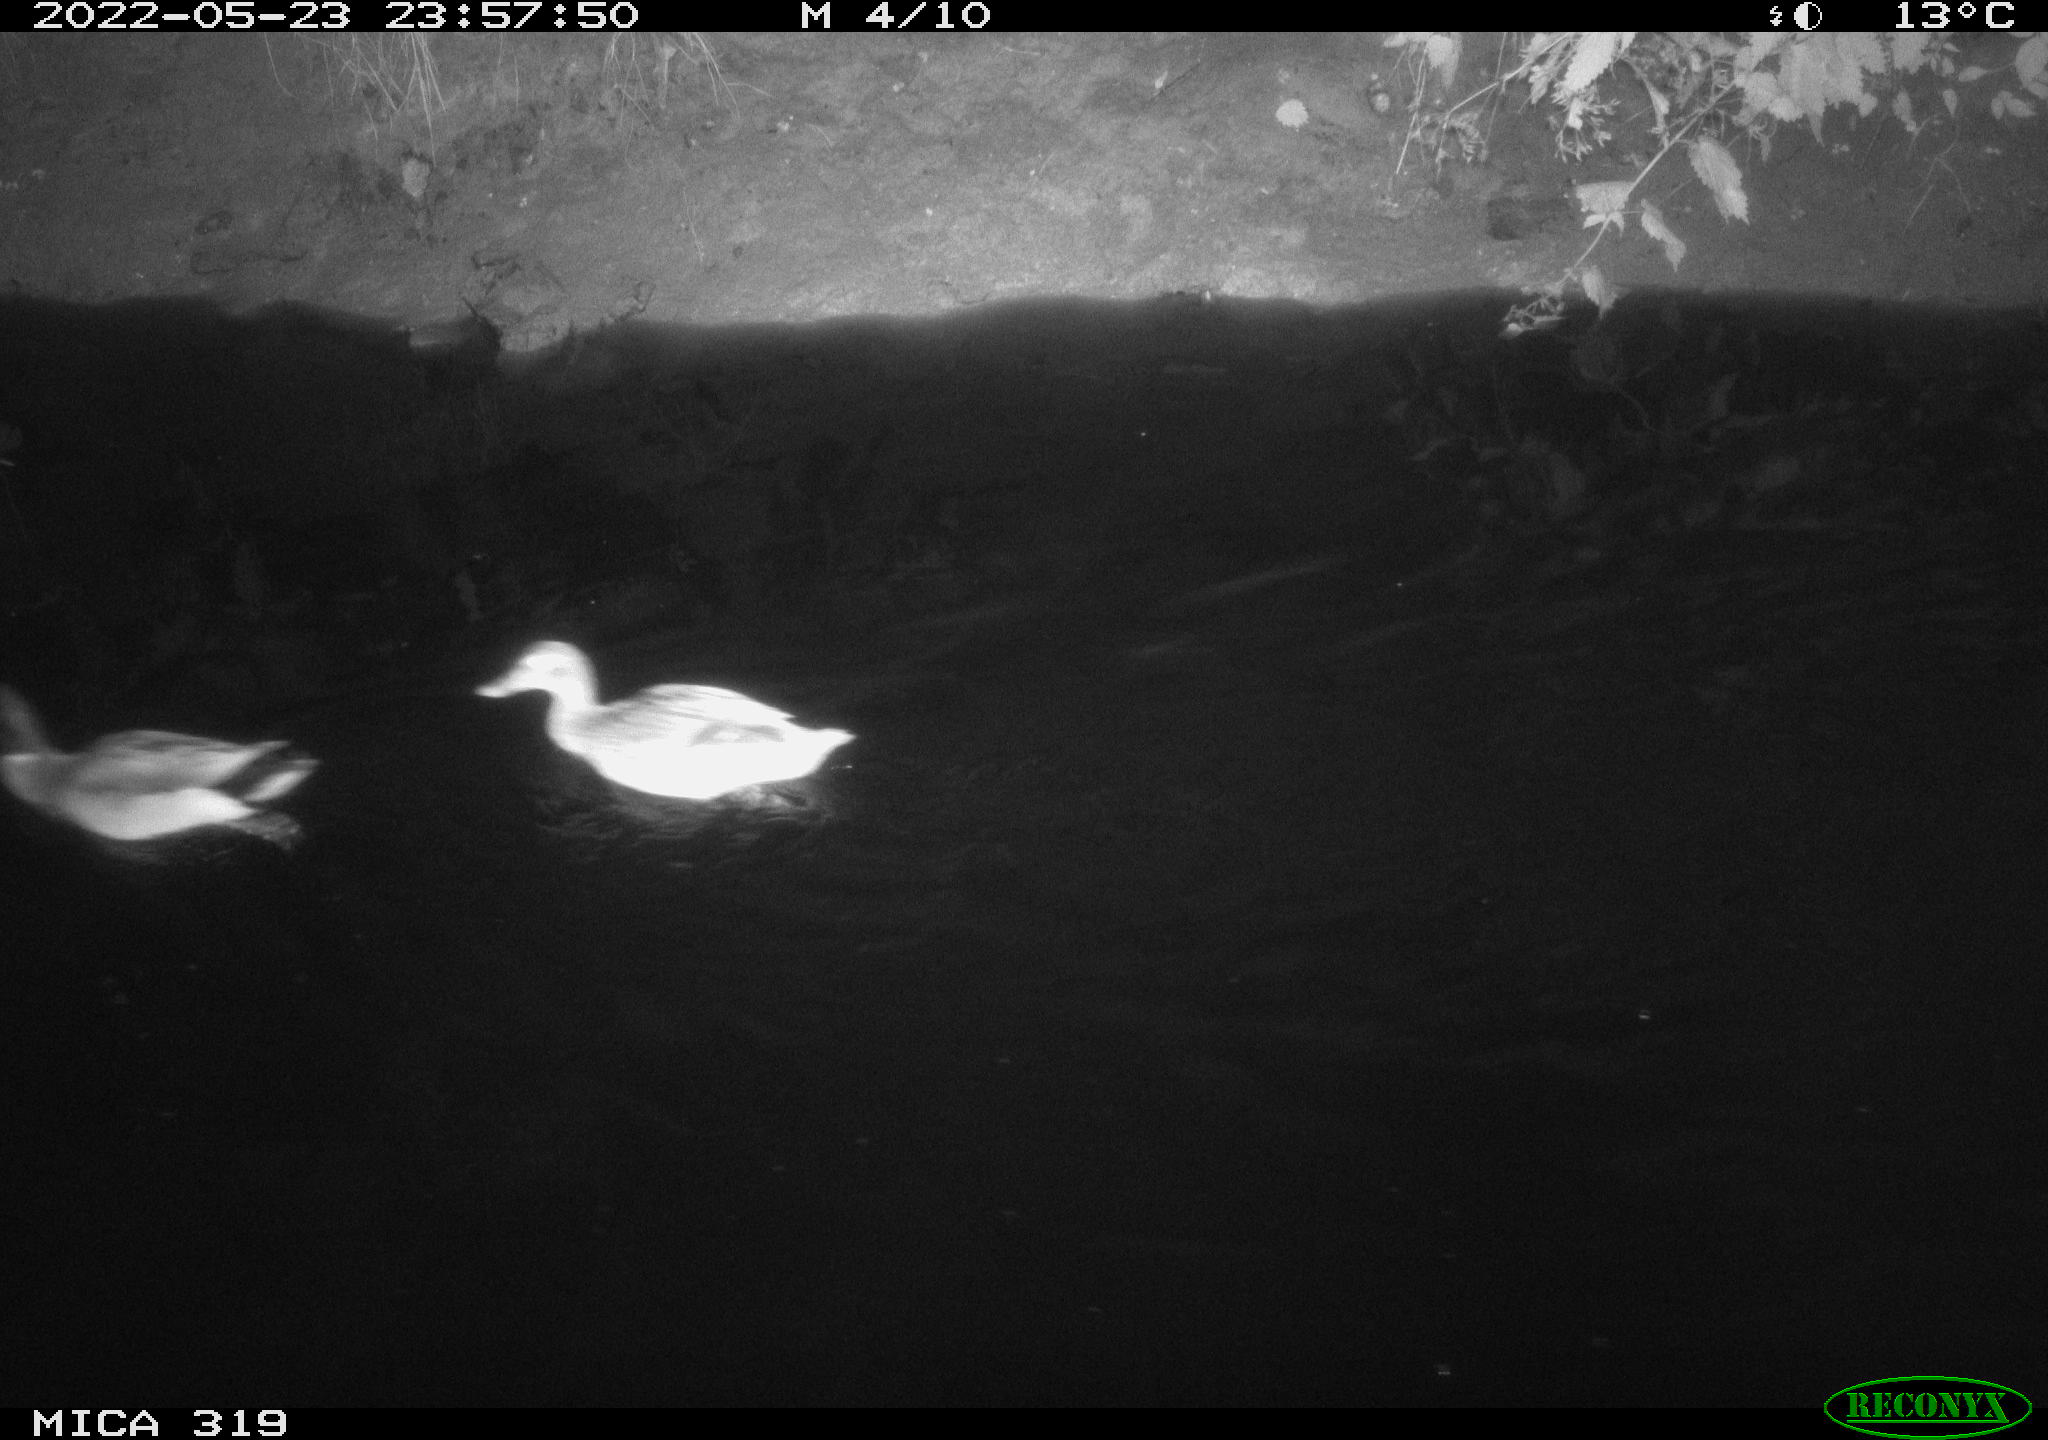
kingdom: Animalia
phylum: Chordata
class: Aves
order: Anseriformes
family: Anatidae
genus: Anas
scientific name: Anas
